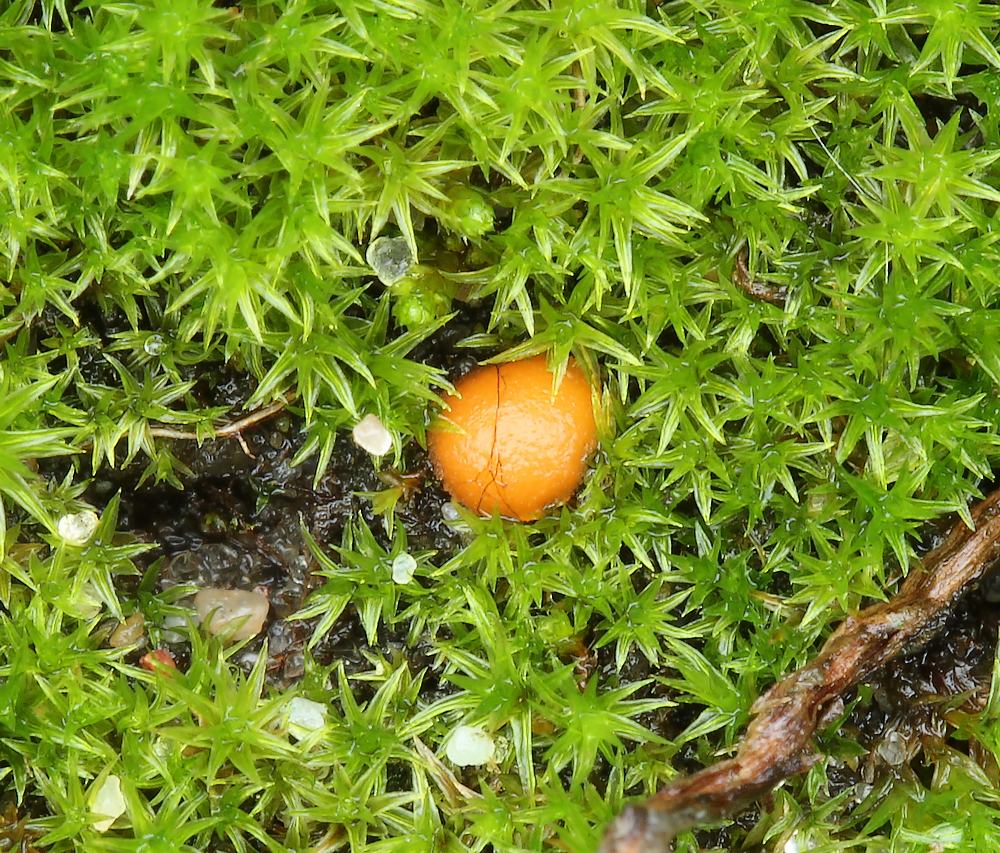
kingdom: Fungi
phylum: Ascomycota
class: Pezizomycetes
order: Pezizales
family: Pyronemataceae
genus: Octospora
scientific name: Octospora rustica
